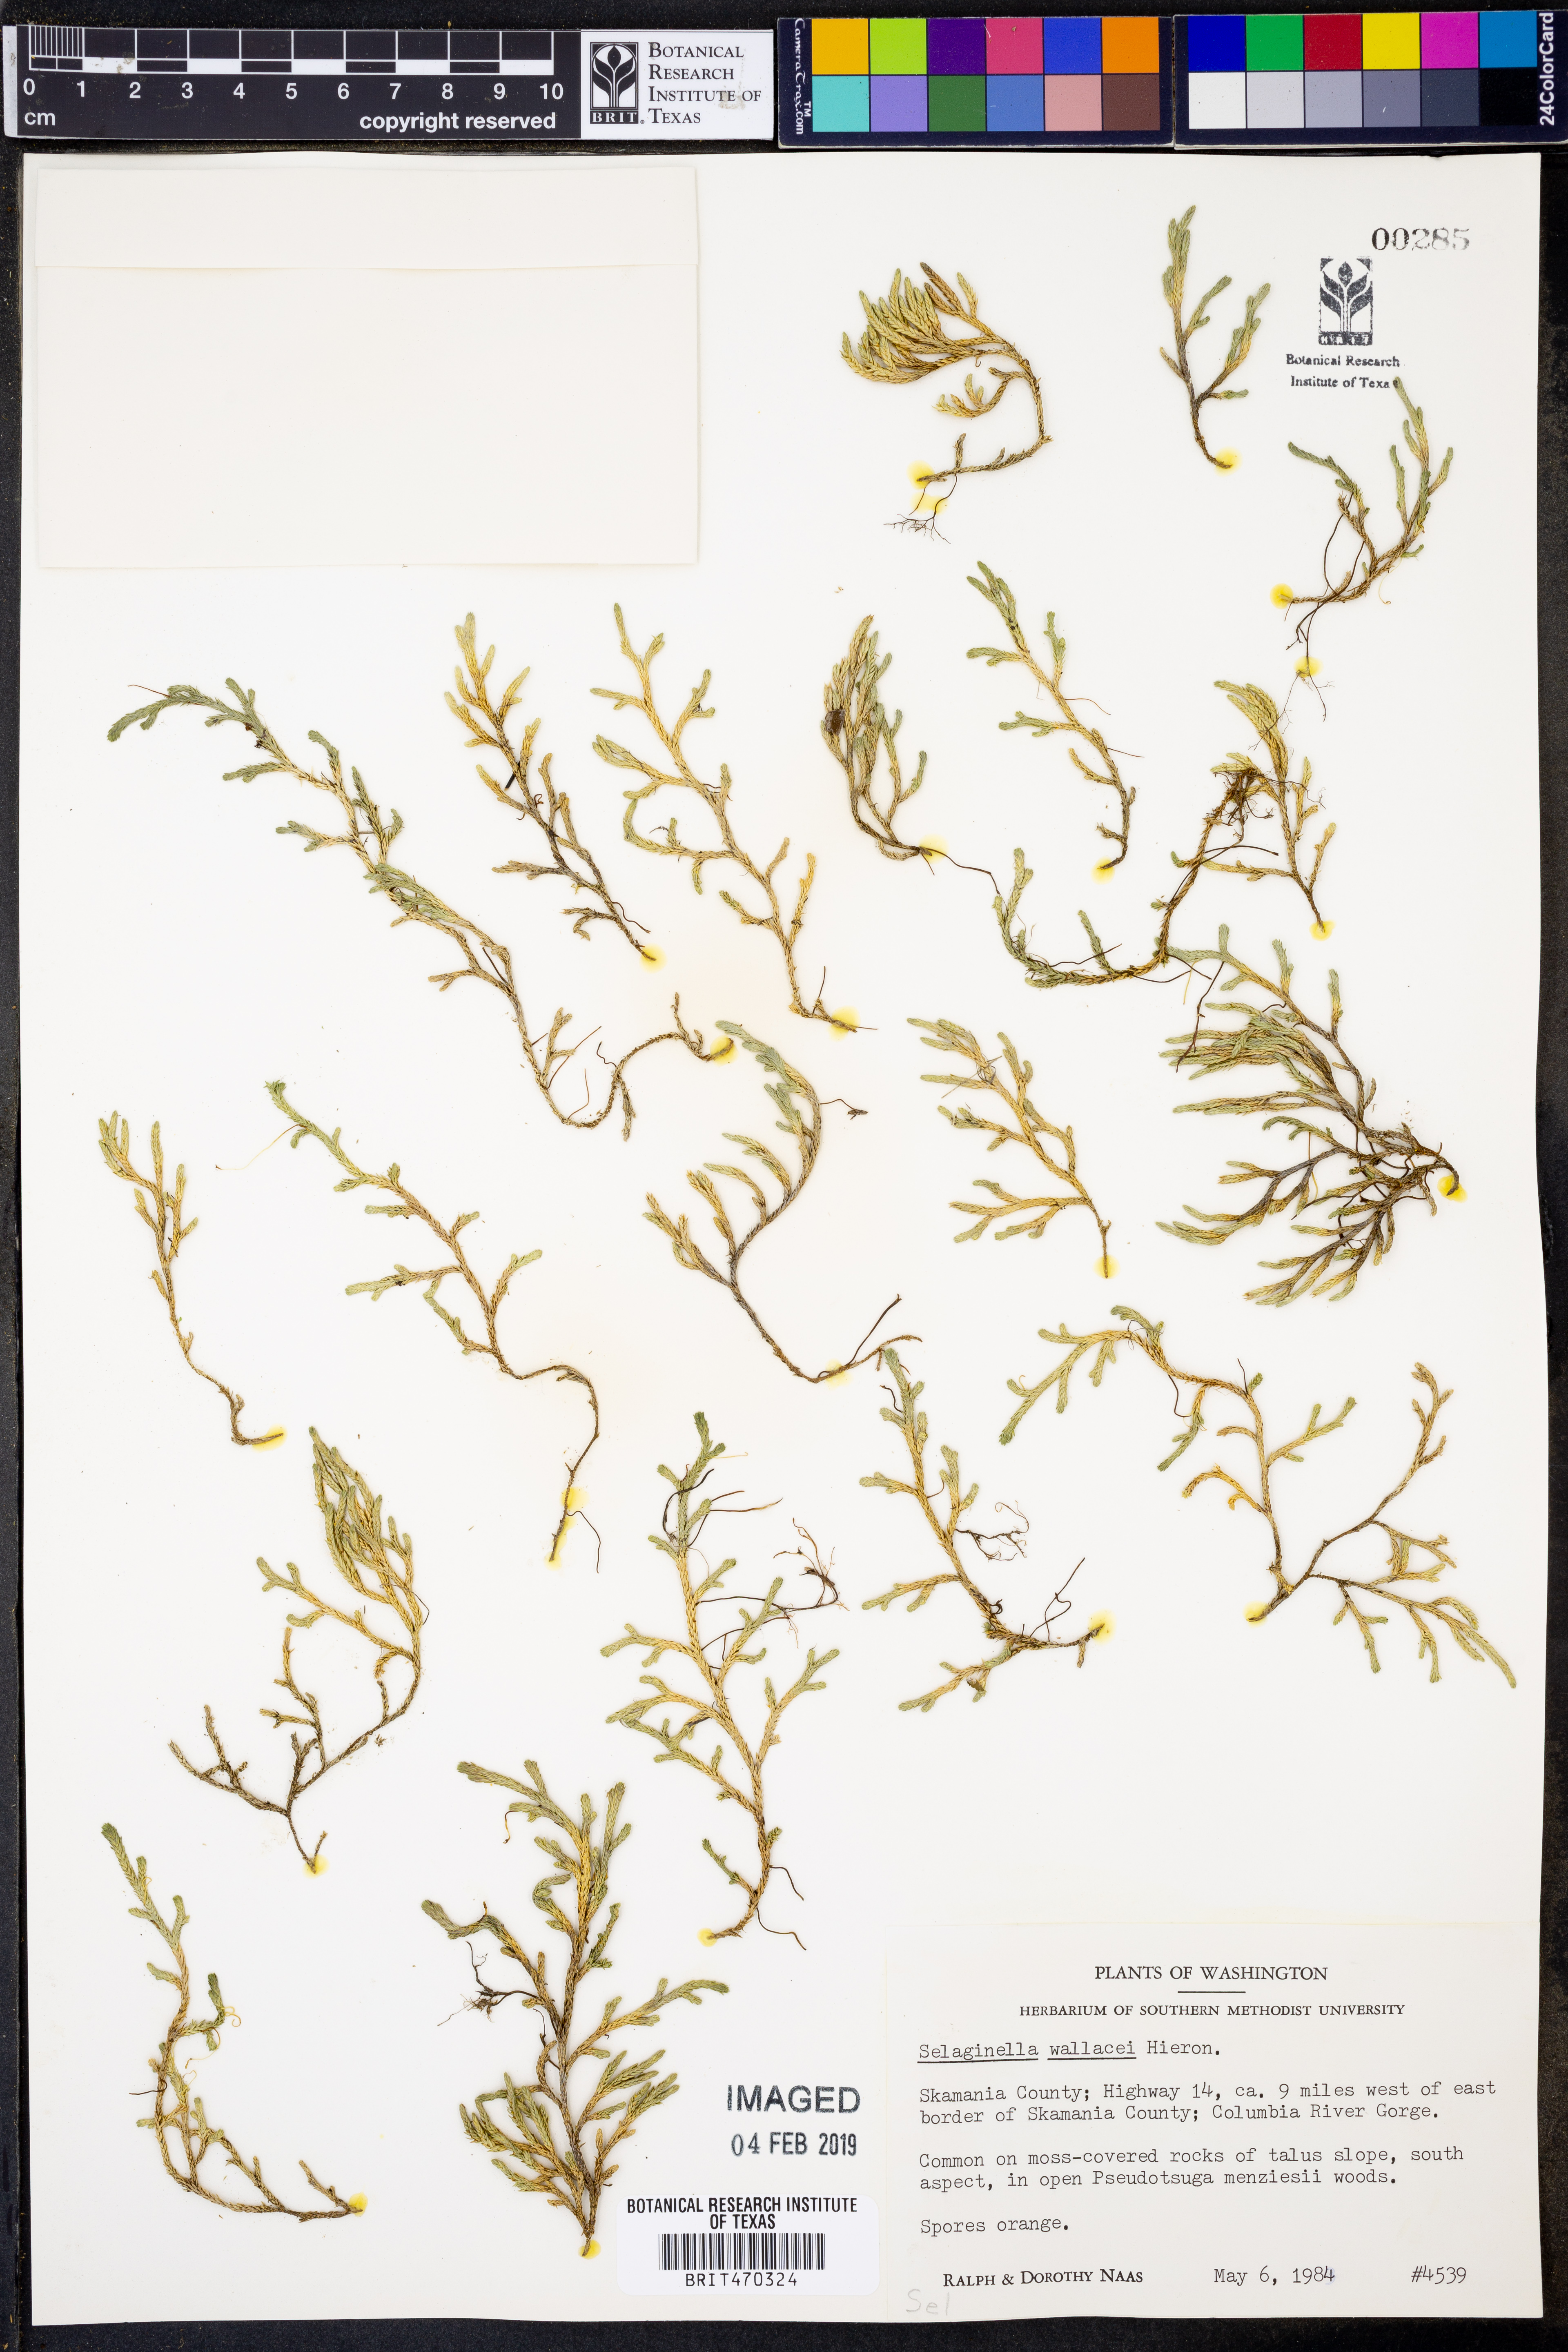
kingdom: Plantae
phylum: Tracheophyta
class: Lycopodiopsida
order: Selaginellales
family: Selaginellaceae
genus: Selaginella
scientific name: Selaginella wallacei
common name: Wallace's selaginella
